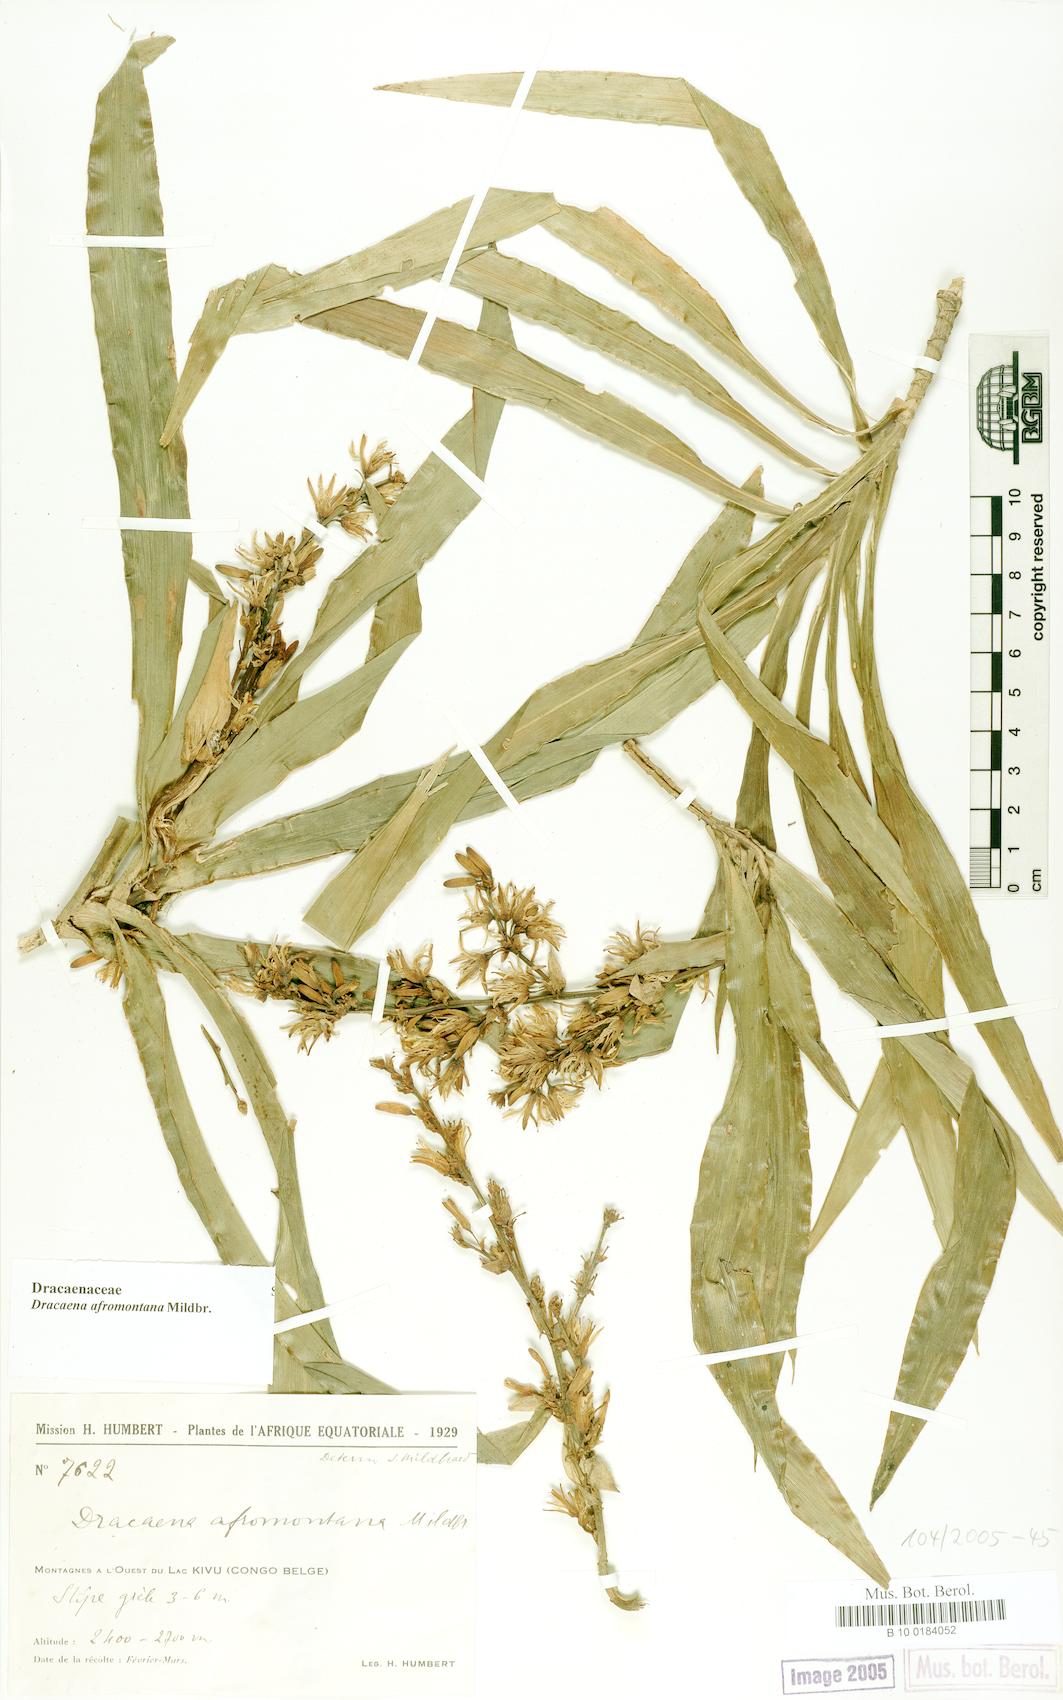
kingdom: Plantae
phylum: Tracheophyta
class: Liliopsida
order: Asparagales
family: Asparagaceae
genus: Dracaena
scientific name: Dracaena afromontana
